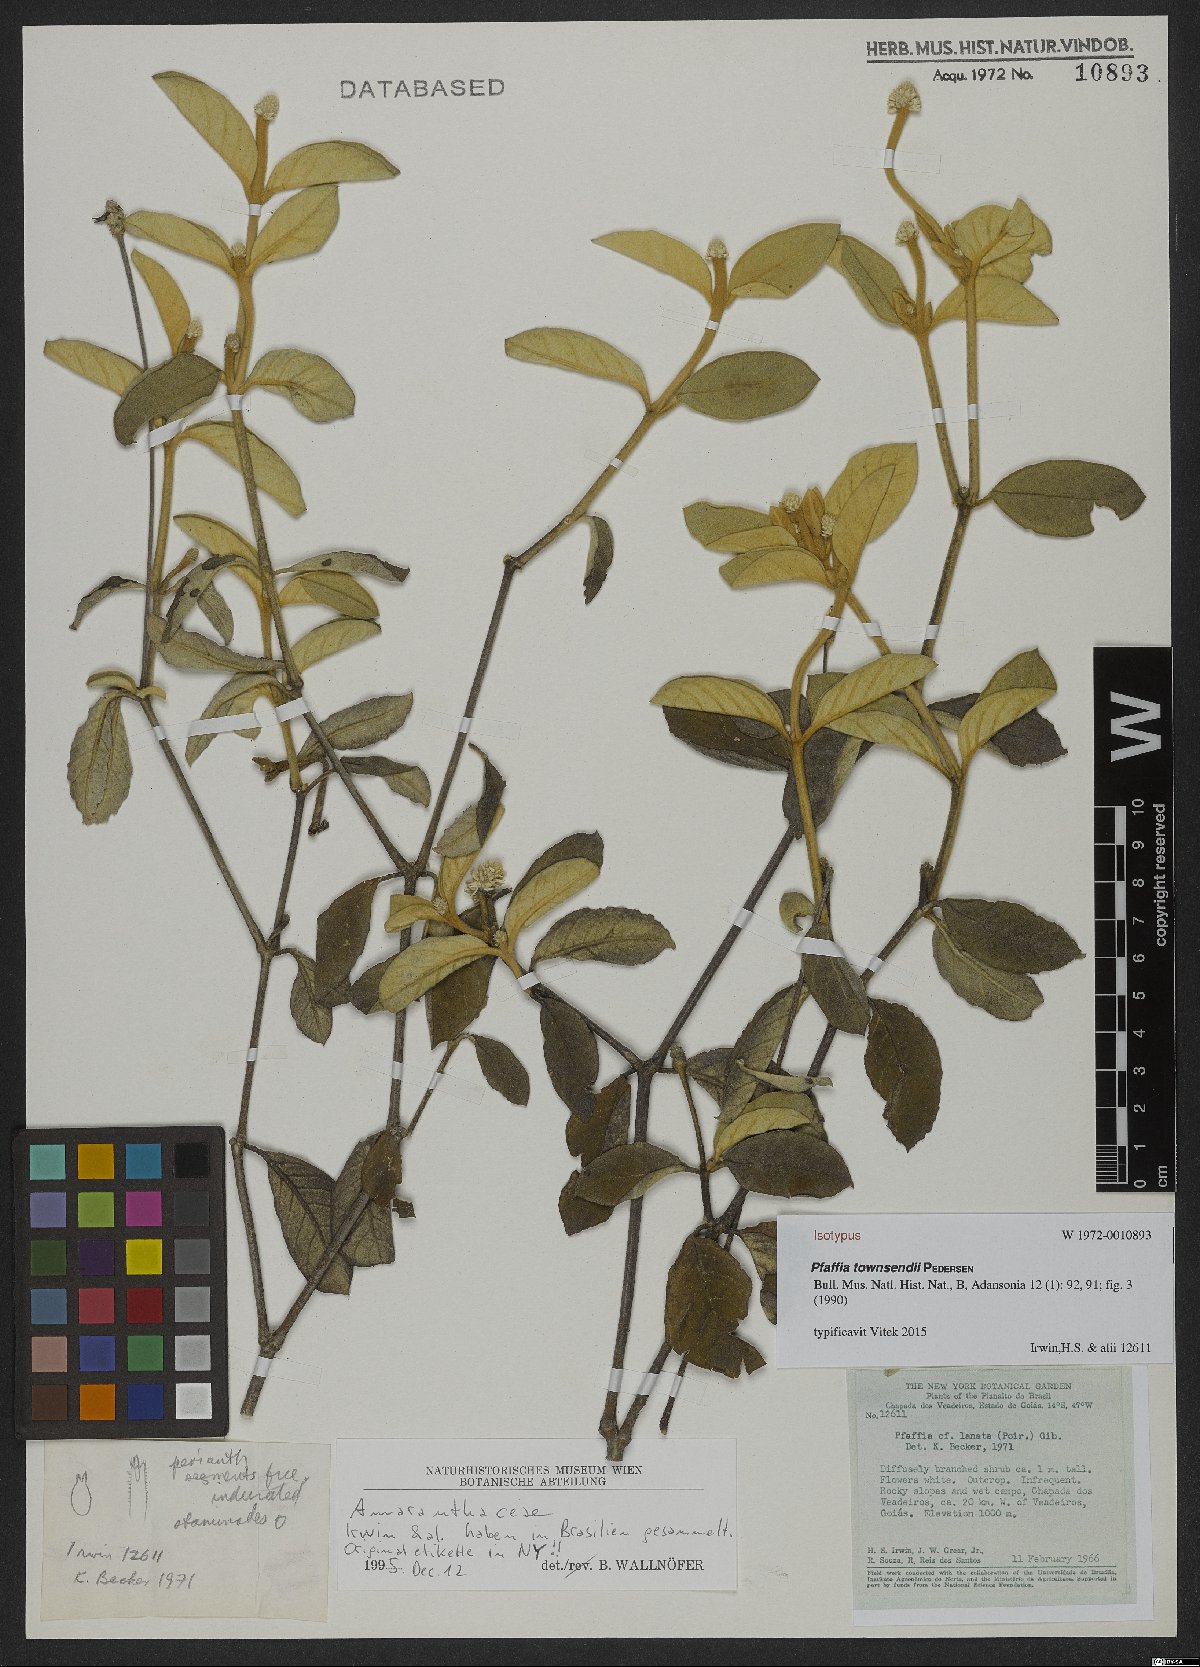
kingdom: Plantae
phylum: Tracheophyta
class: Magnoliopsida
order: Caryophyllales
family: Amaranthaceae
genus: Pfaffia
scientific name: Pfaffia townsendii
